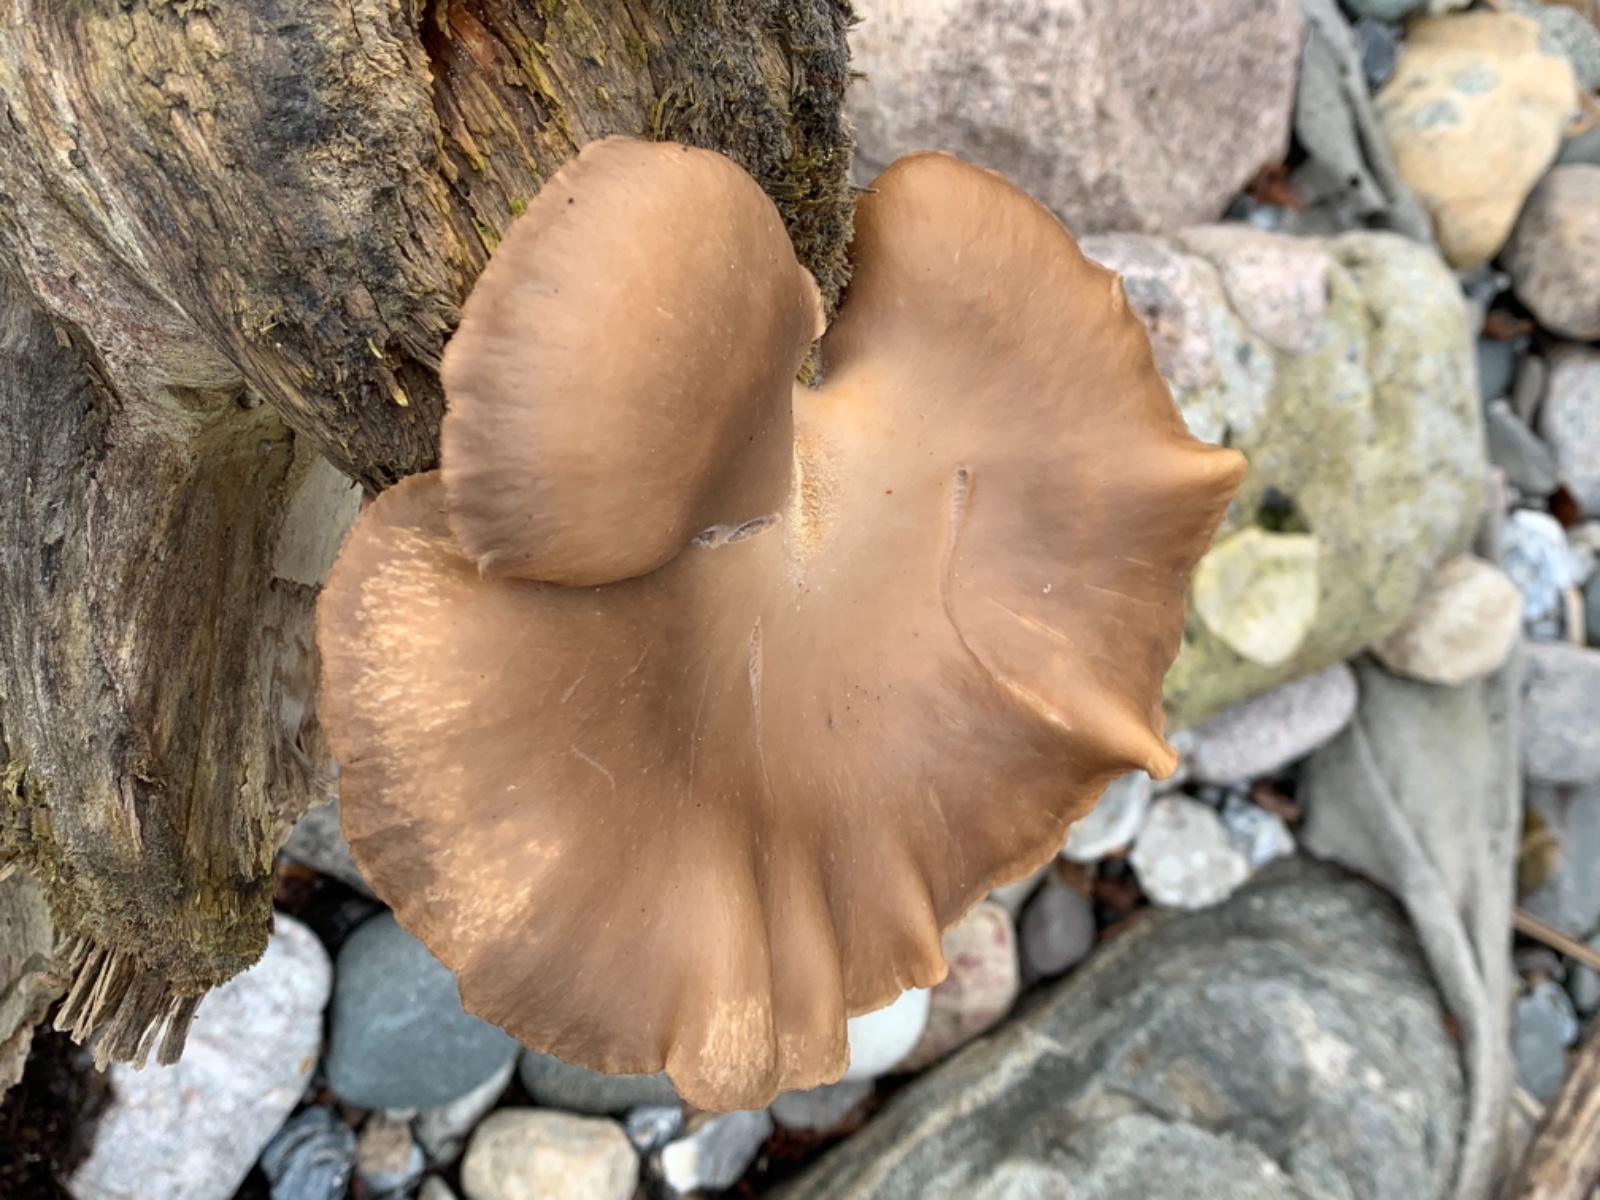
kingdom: Fungi
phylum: Basidiomycota
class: Agaricomycetes
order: Agaricales
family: Pleurotaceae
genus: Pleurotus
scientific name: Pleurotus ostreatus
